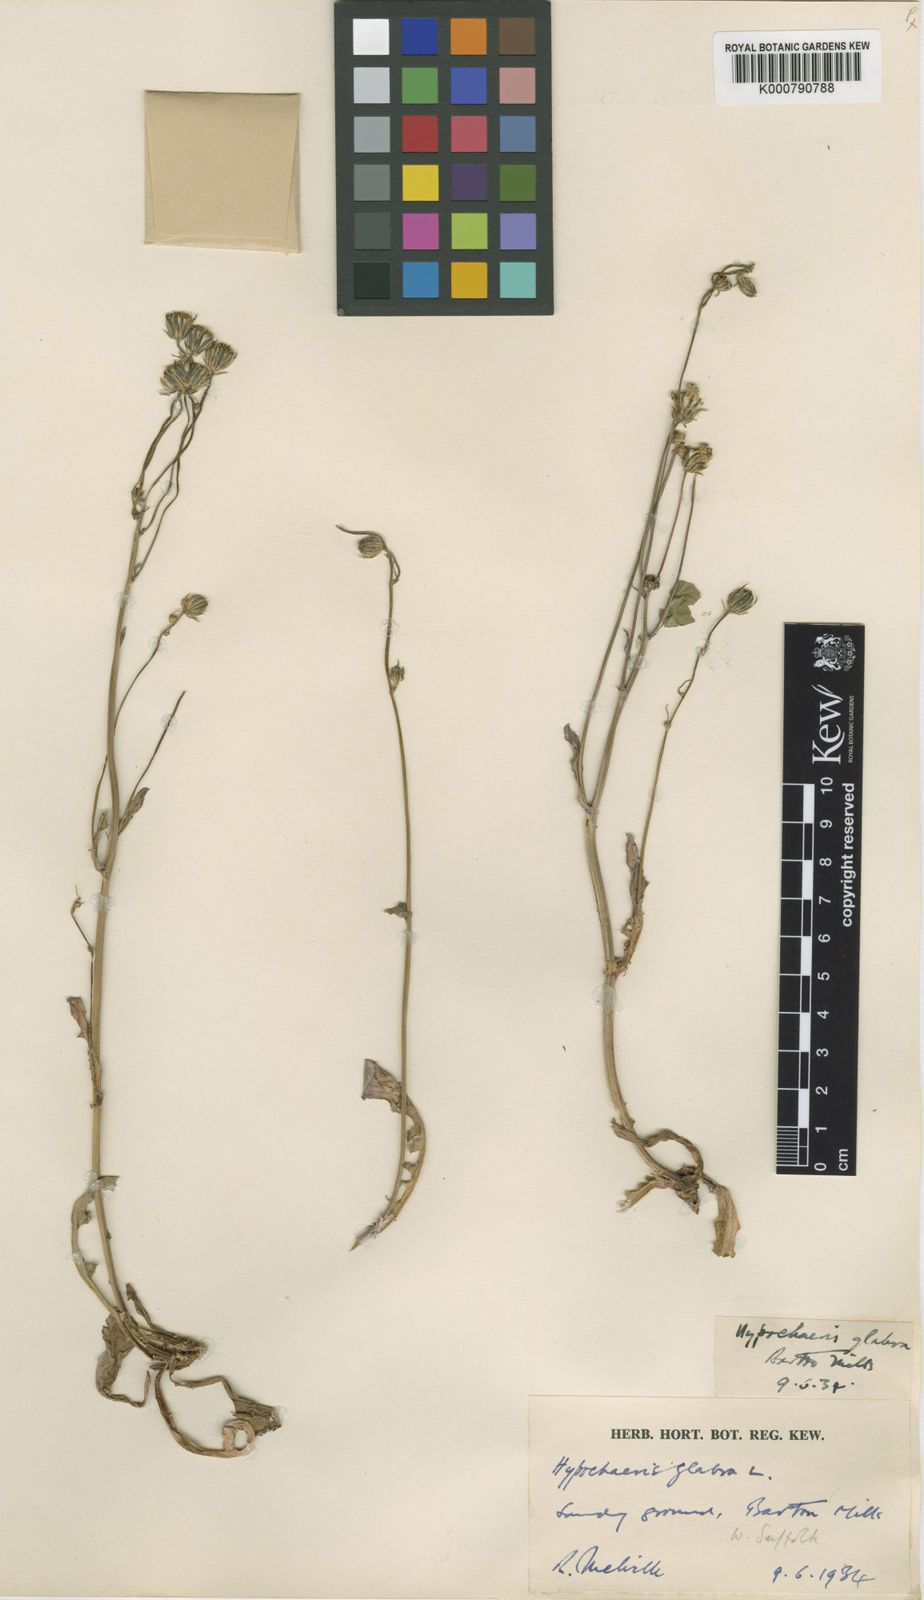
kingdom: Plantae
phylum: Tracheophyta
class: Magnoliopsida
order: Asterales
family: Asteraceae
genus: Hypochaeris
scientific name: Hypochaeris glabra
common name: Smooth catsear
